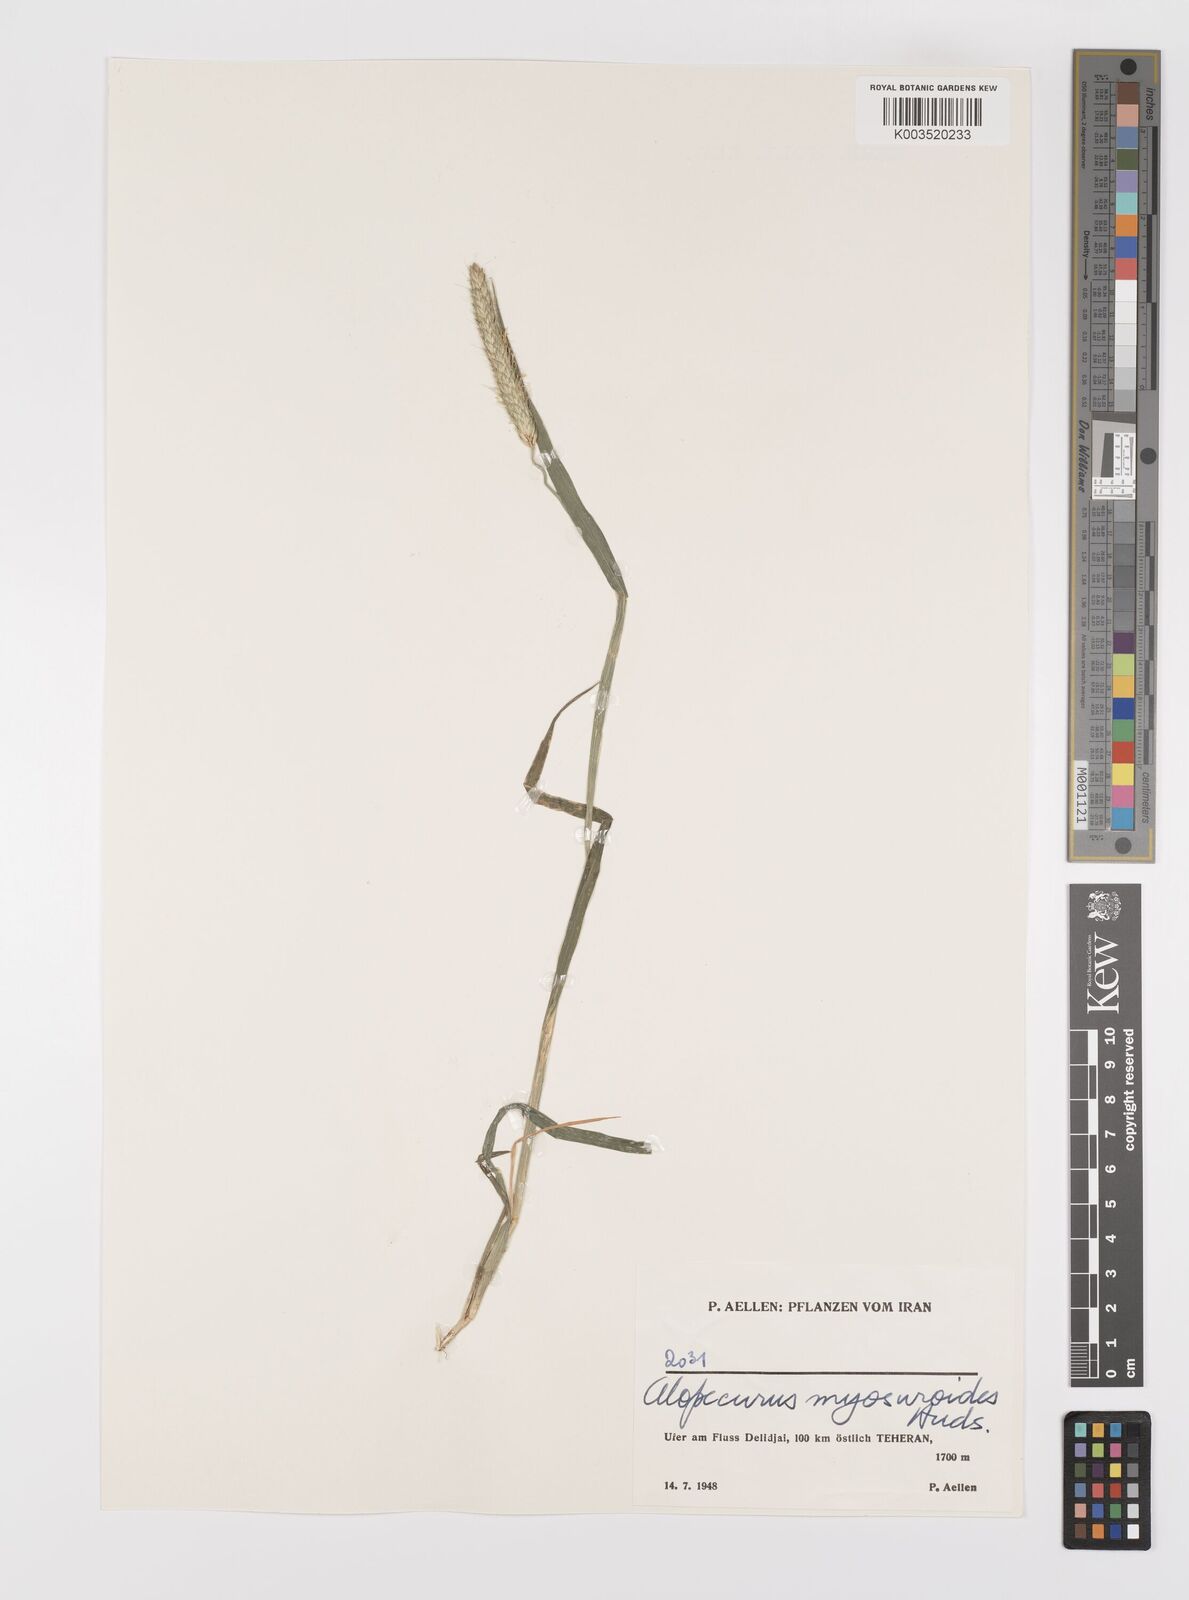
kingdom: Plantae
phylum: Tracheophyta
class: Liliopsida
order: Poales
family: Poaceae
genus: Alopecurus
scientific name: Alopecurus myosuroides
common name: Black-grass
